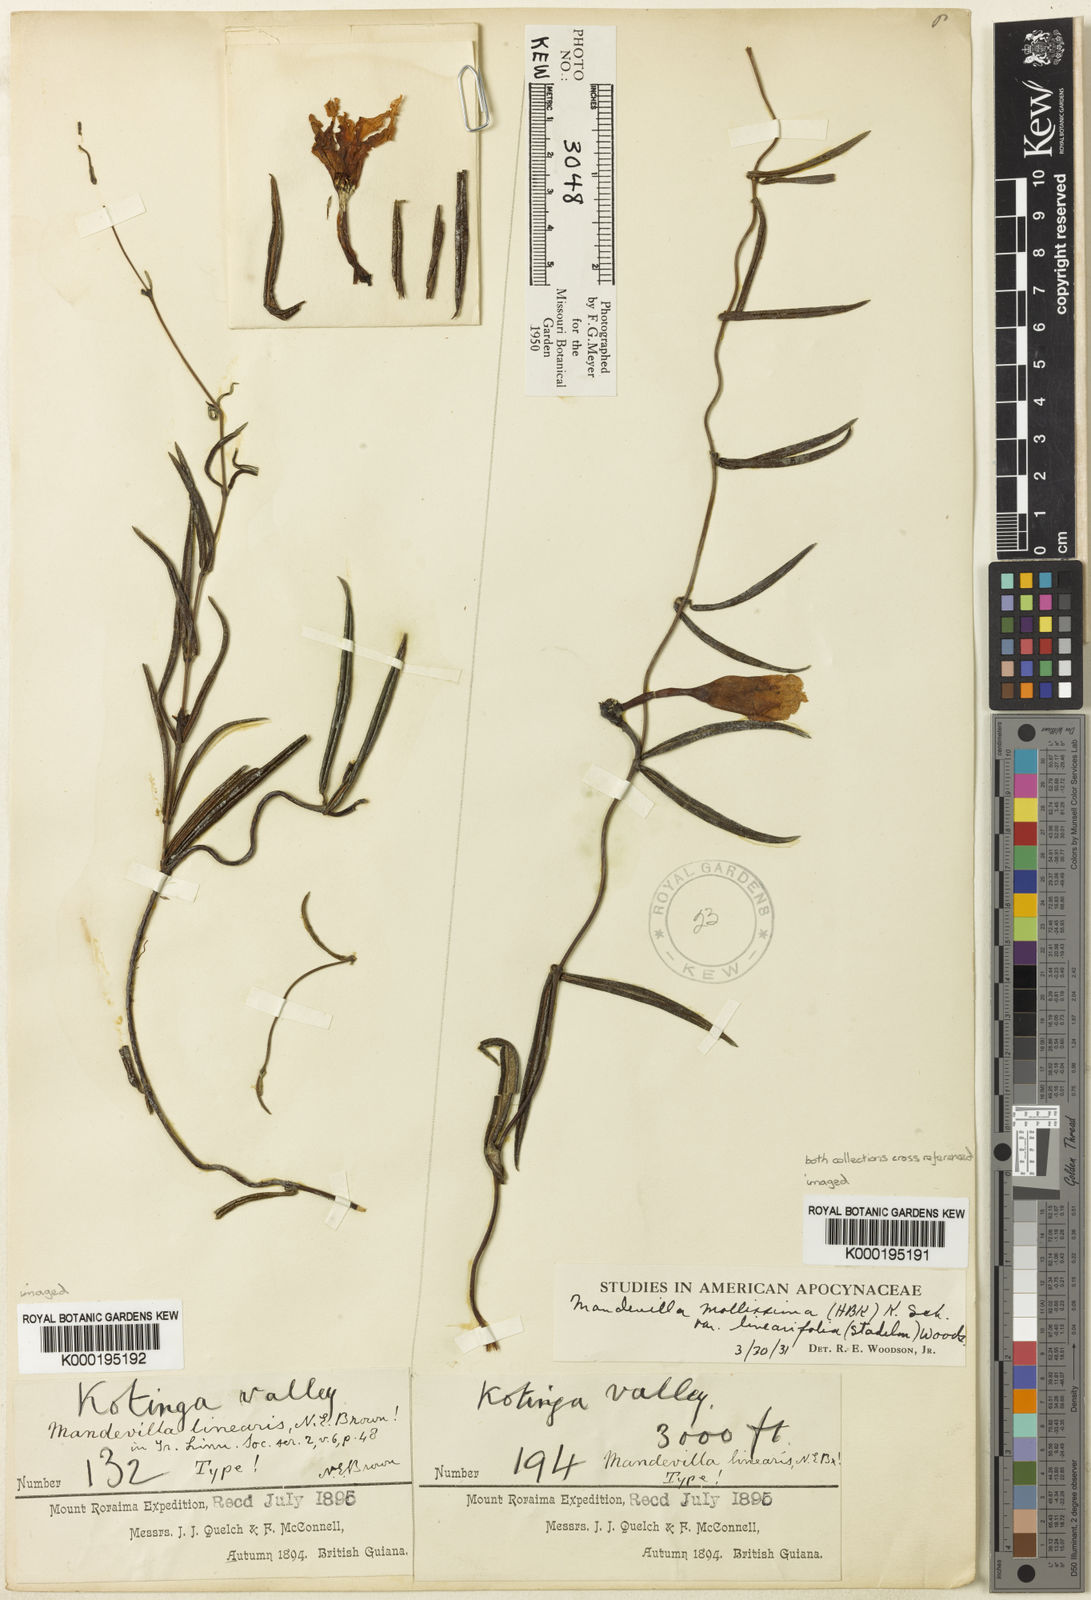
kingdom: Plantae
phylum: Tracheophyta
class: Magnoliopsida
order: Gentianales
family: Apocynaceae
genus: Mandevilla
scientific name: Mandevilla leptophylla
